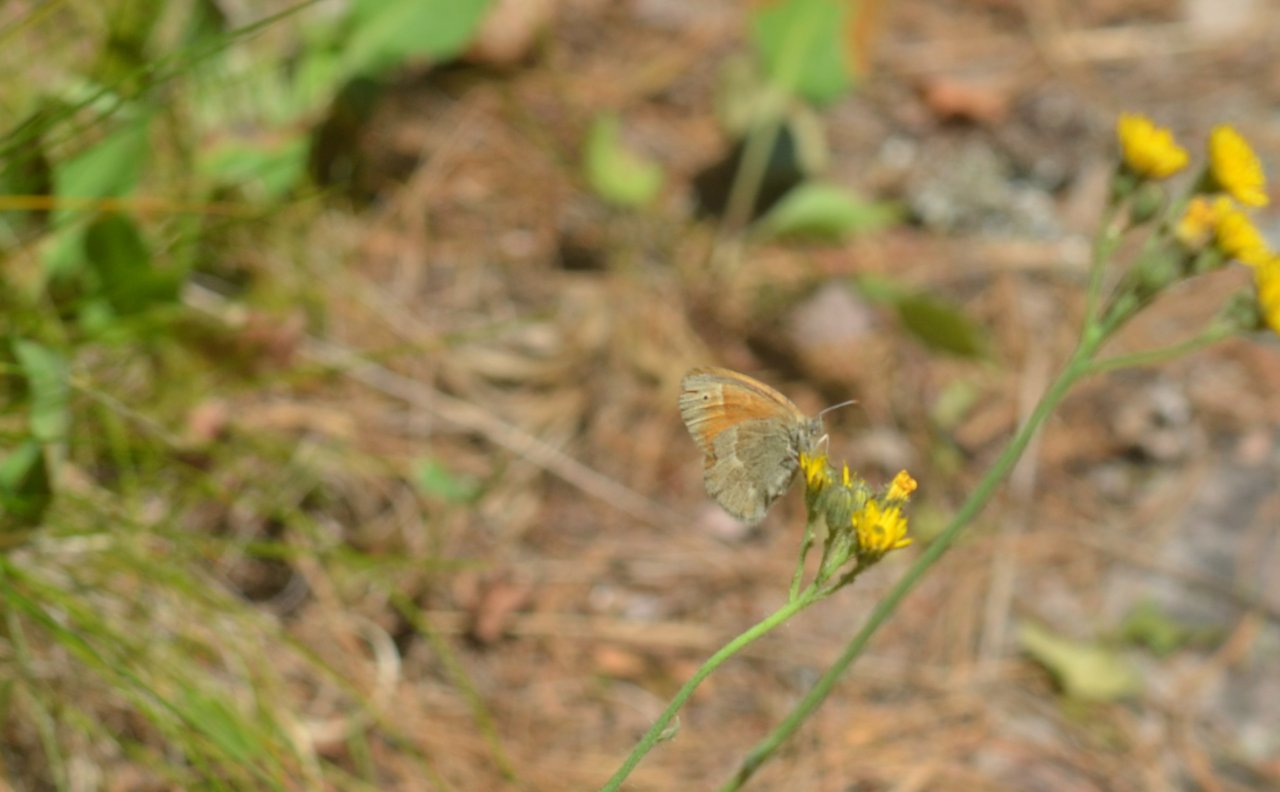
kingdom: Animalia
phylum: Arthropoda
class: Insecta
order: Lepidoptera
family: Nymphalidae
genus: Coenonympha
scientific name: Coenonympha tullia
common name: Large Heath
